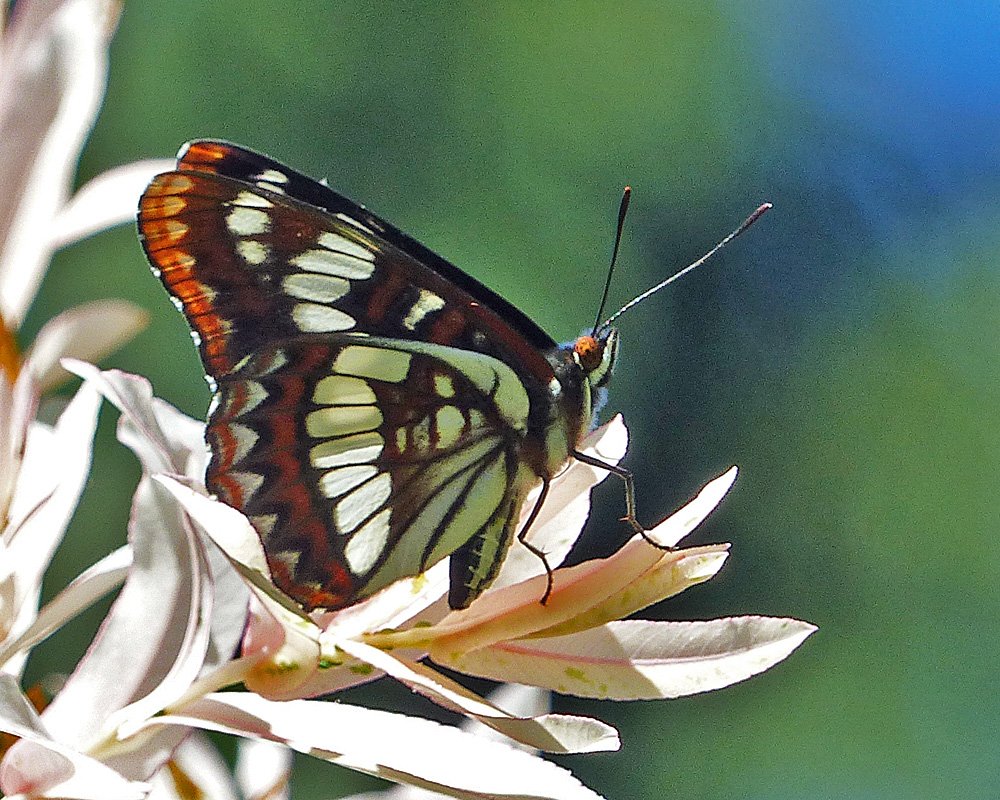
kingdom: Animalia
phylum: Arthropoda
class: Insecta
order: Lepidoptera
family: Nymphalidae
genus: Limenitis
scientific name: Limenitis lorquini
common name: Lorquin's Admiral
